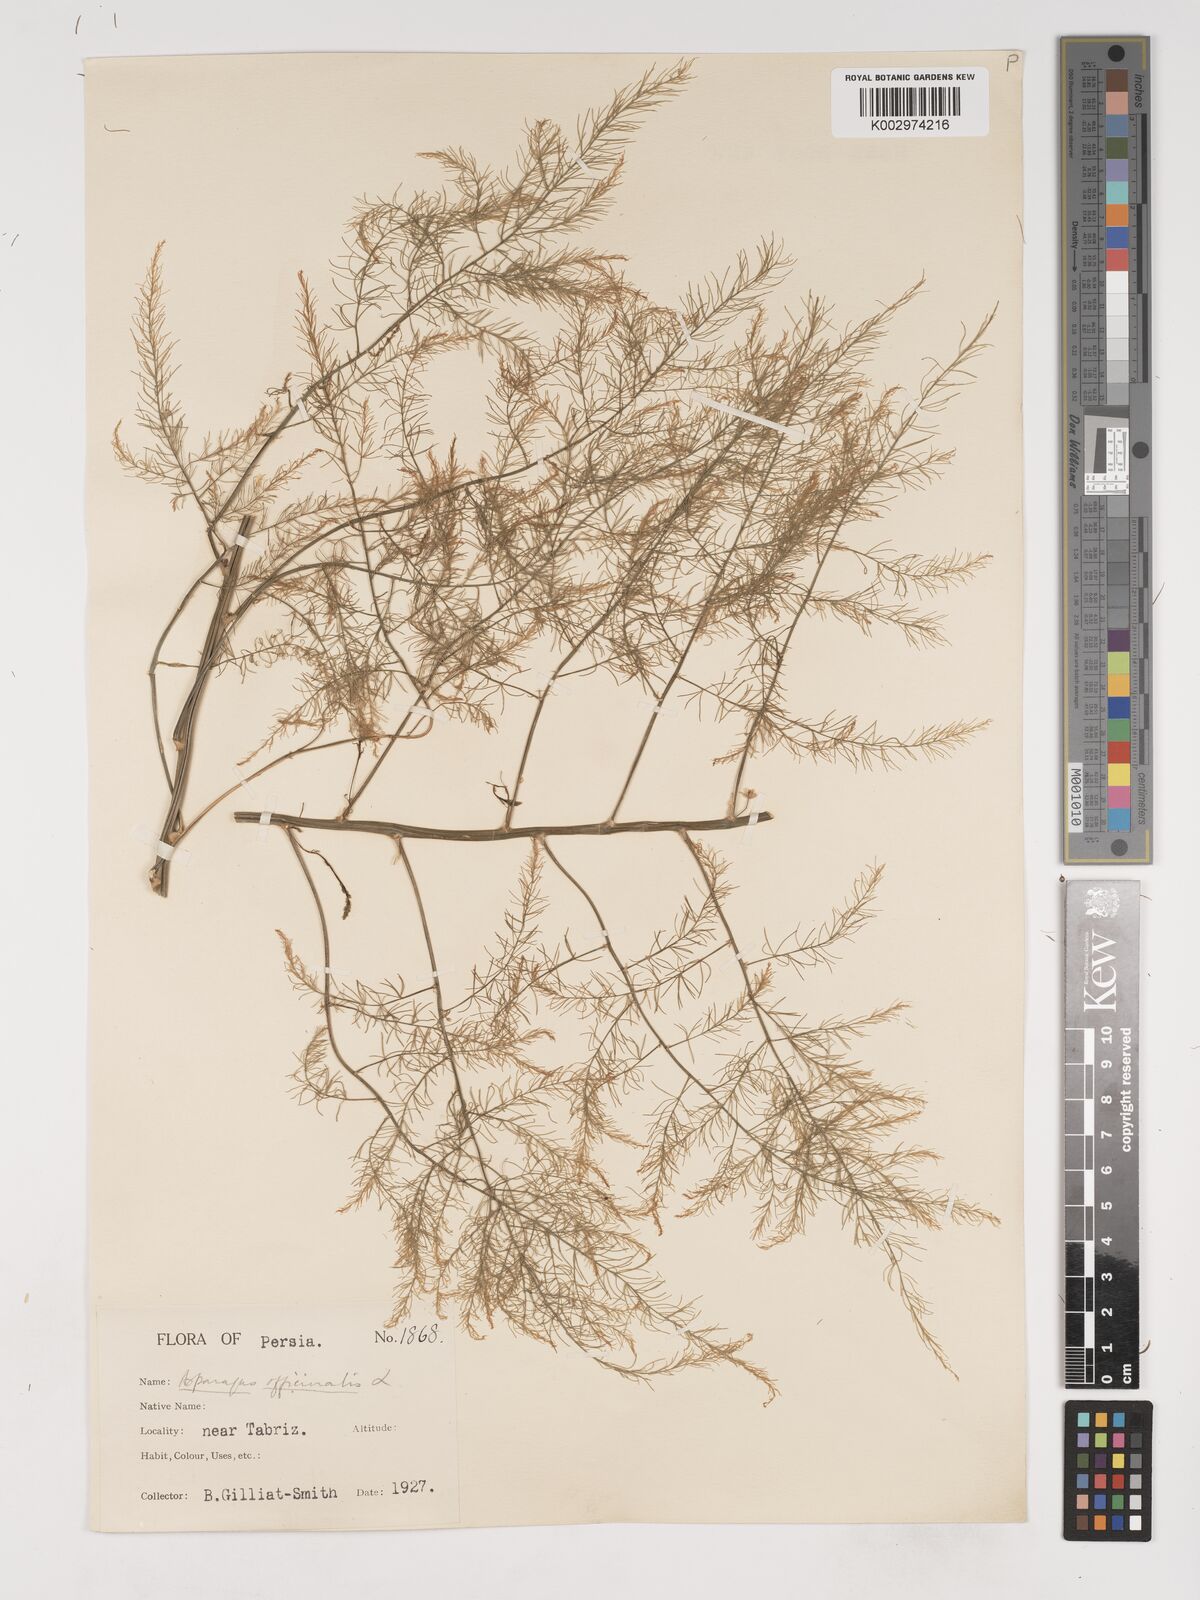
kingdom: Plantae
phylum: Tracheophyta
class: Liliopsida
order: Asparagales
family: Asparagaceae
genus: Asparagus
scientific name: Asparagus officinalis
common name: Garden asparagus
